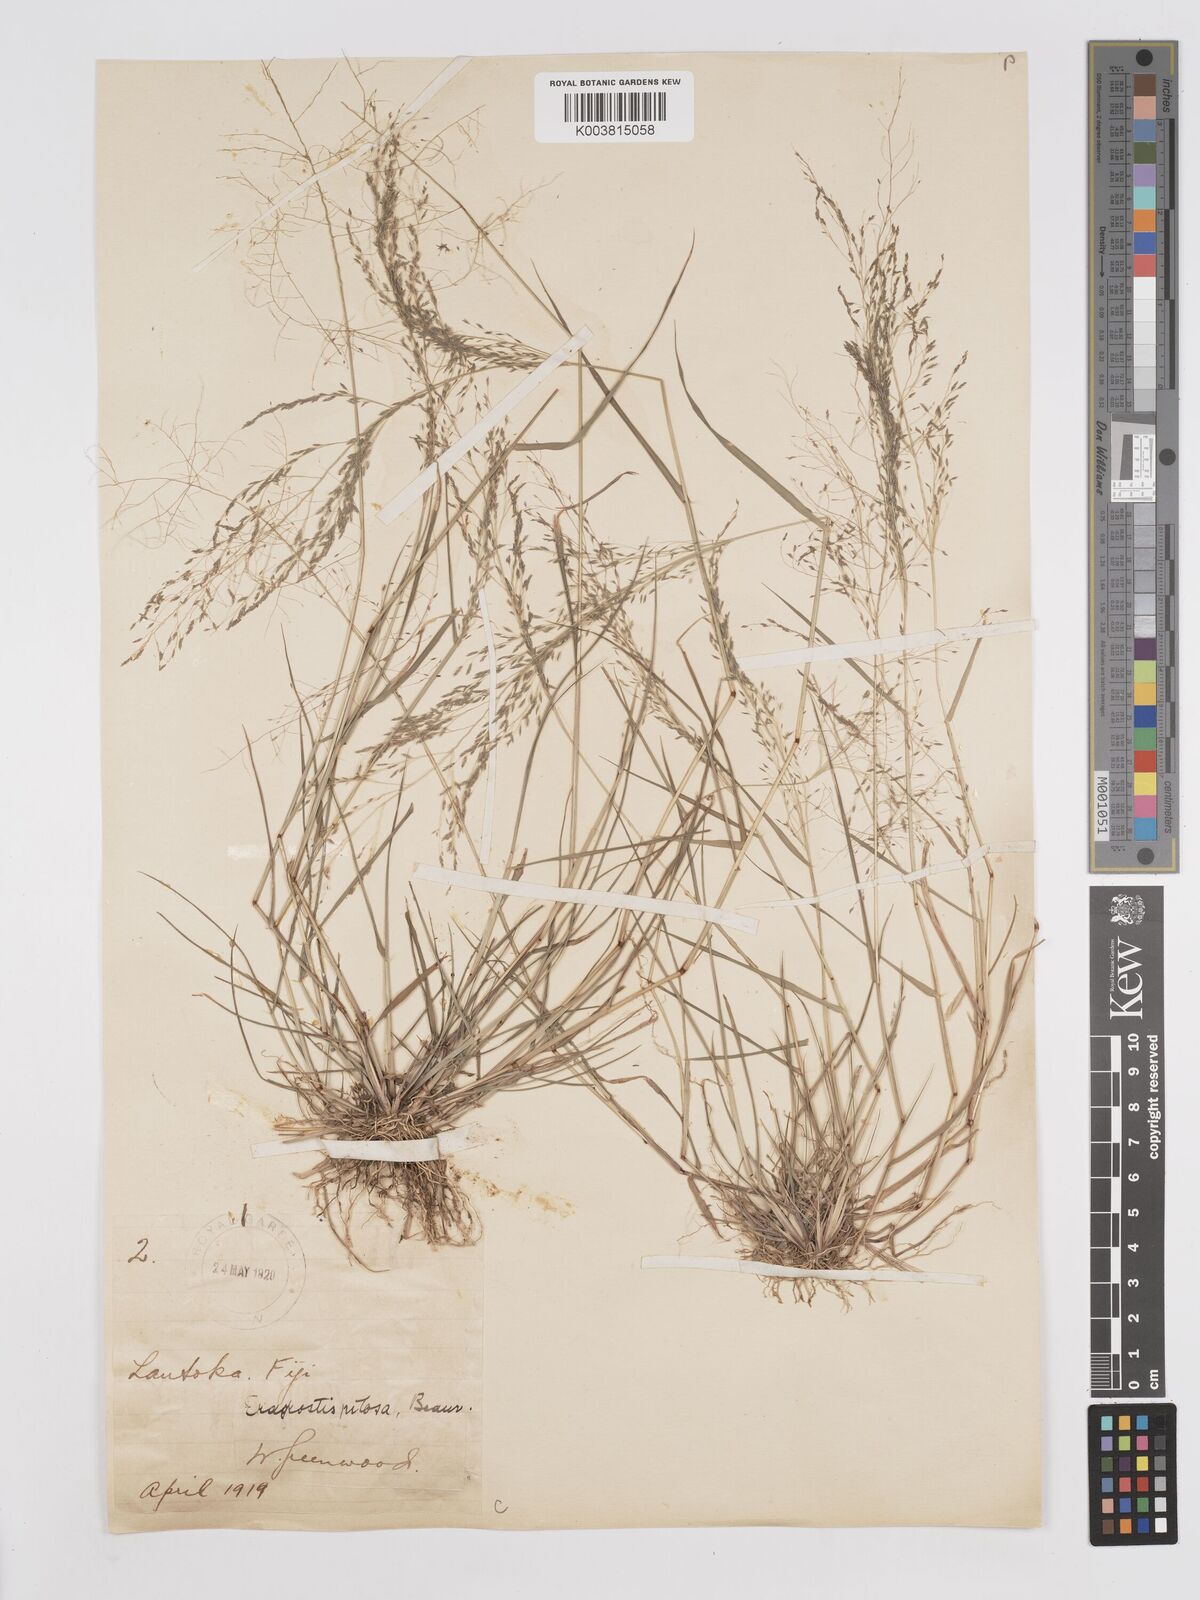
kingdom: Plantae
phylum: Tracheophyta
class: Liliopsida
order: Poales
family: Poaceae
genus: Eragrostis
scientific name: Eragrostis pilosa
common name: Indian lovegrass
